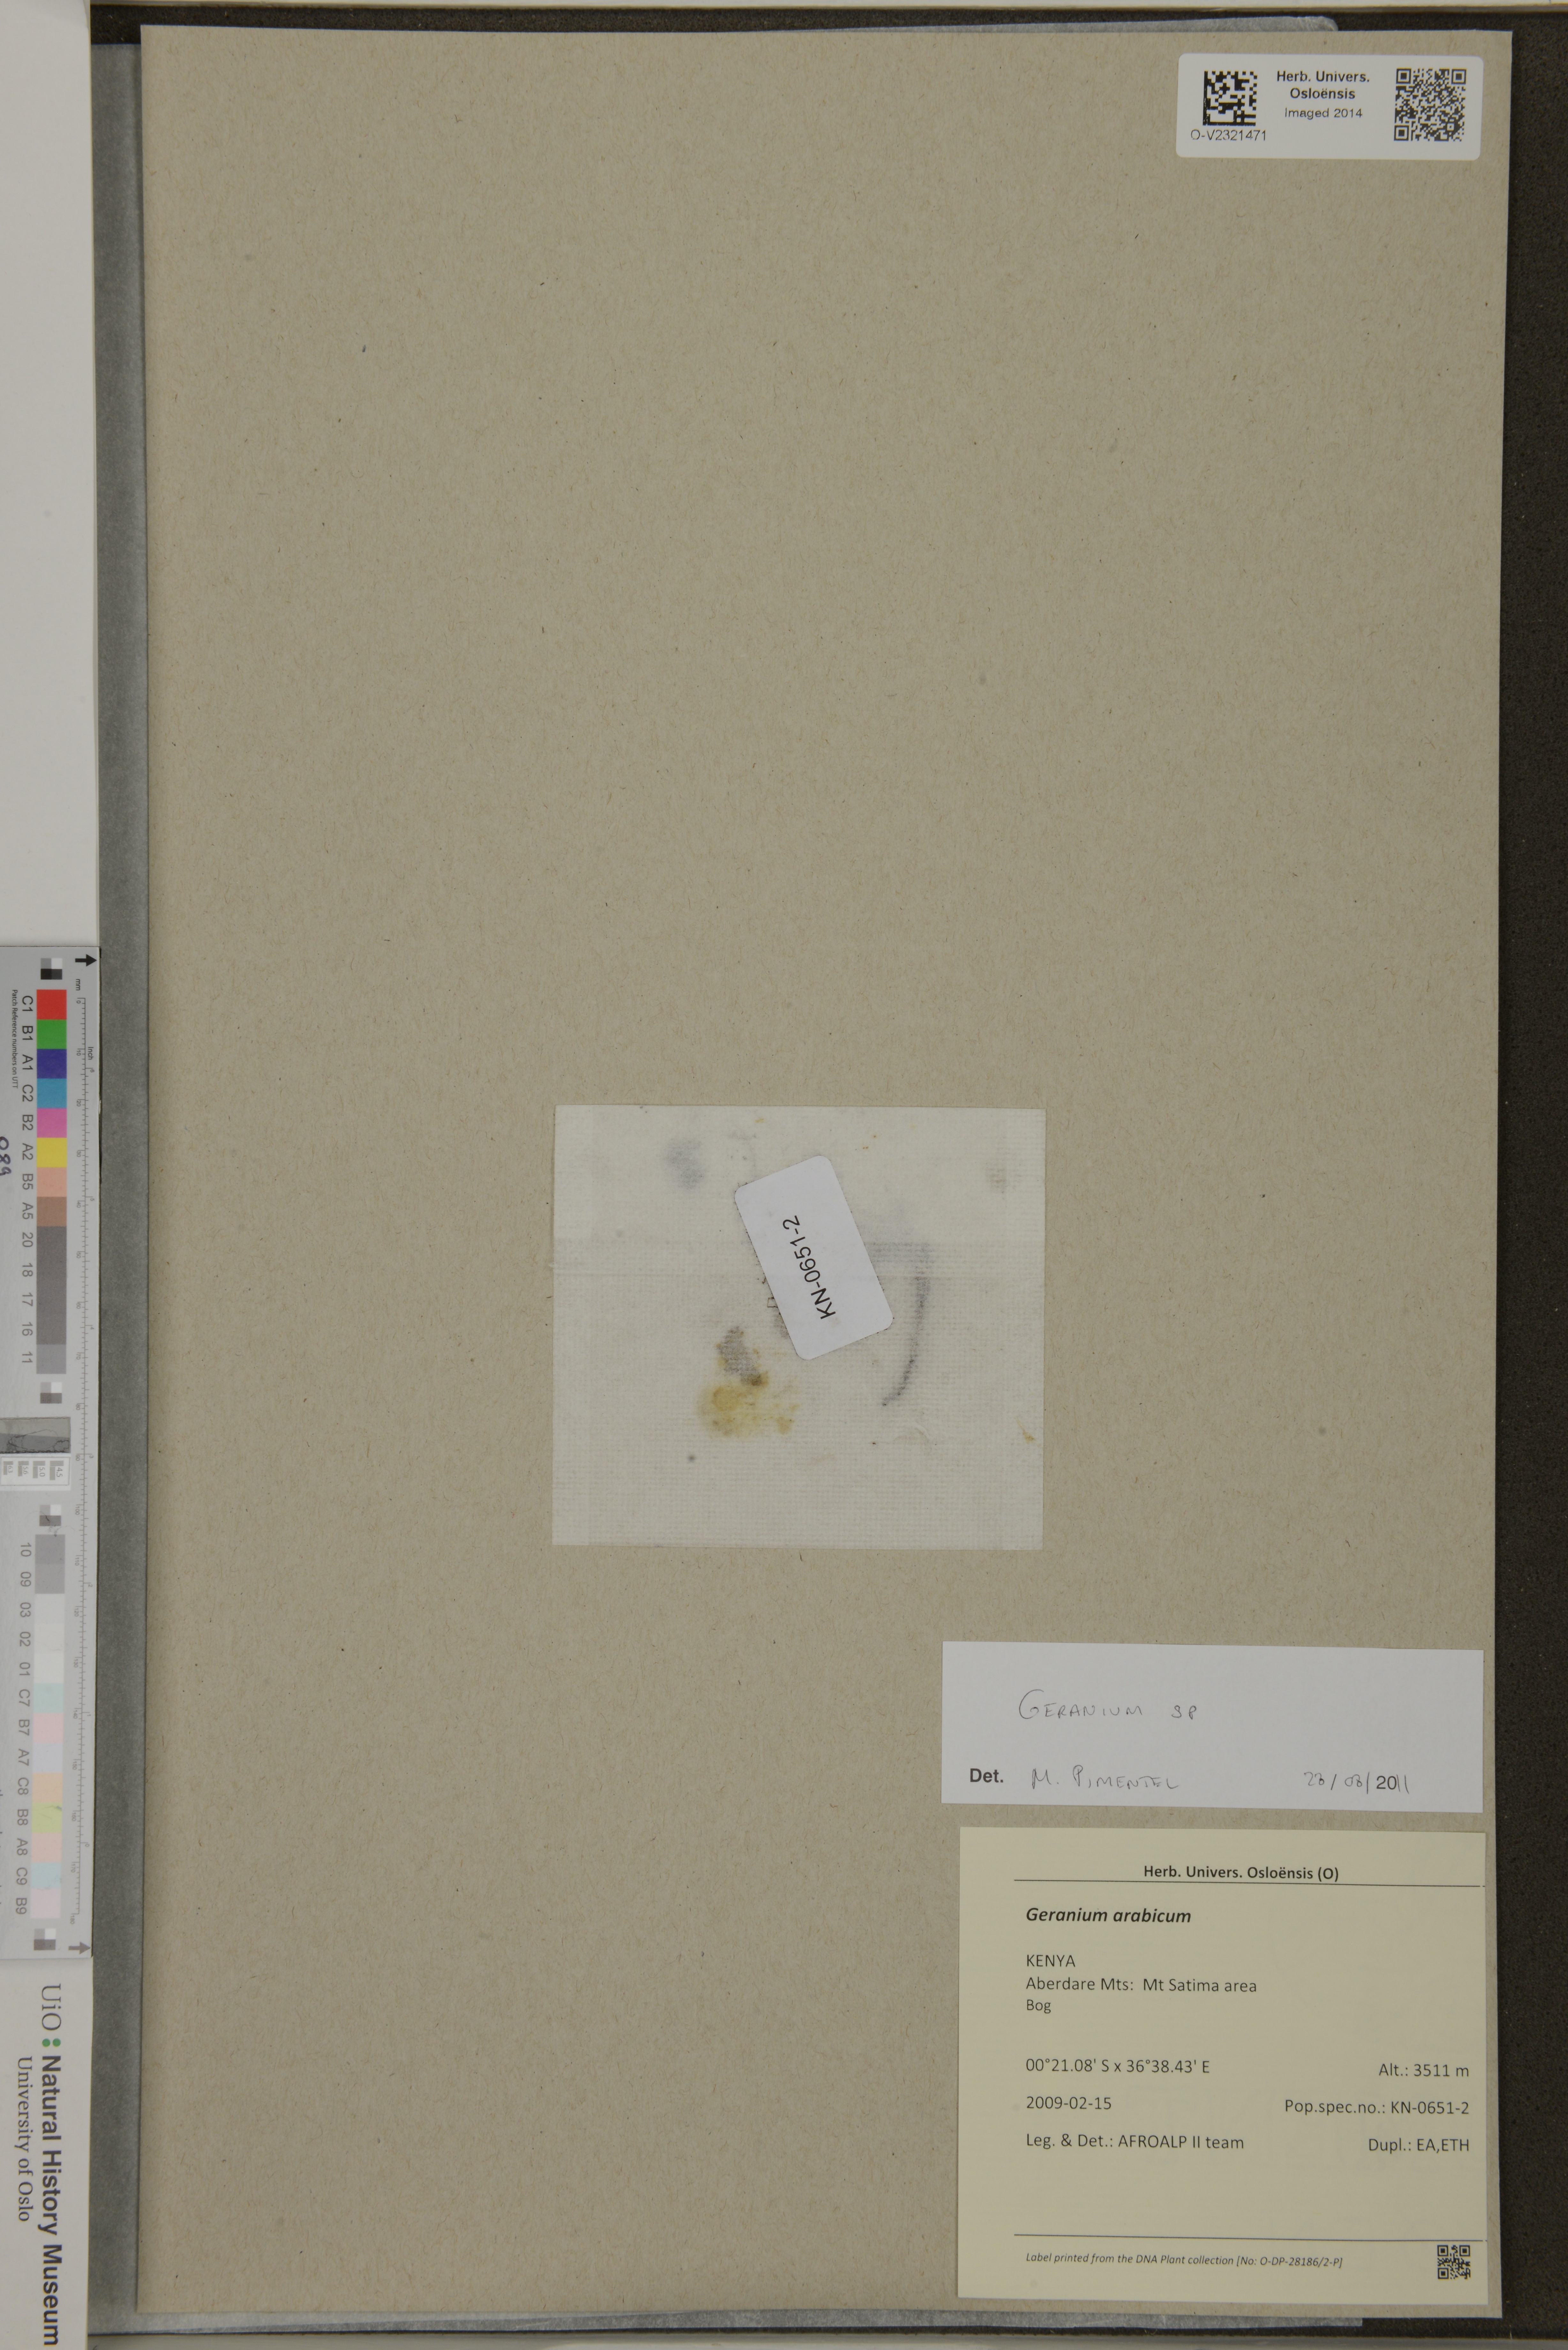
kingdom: Plantae
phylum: Tracheophyta
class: Magnoliopsida
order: Geraniales
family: Geraniaceae
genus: Geranium
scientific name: Geranium
